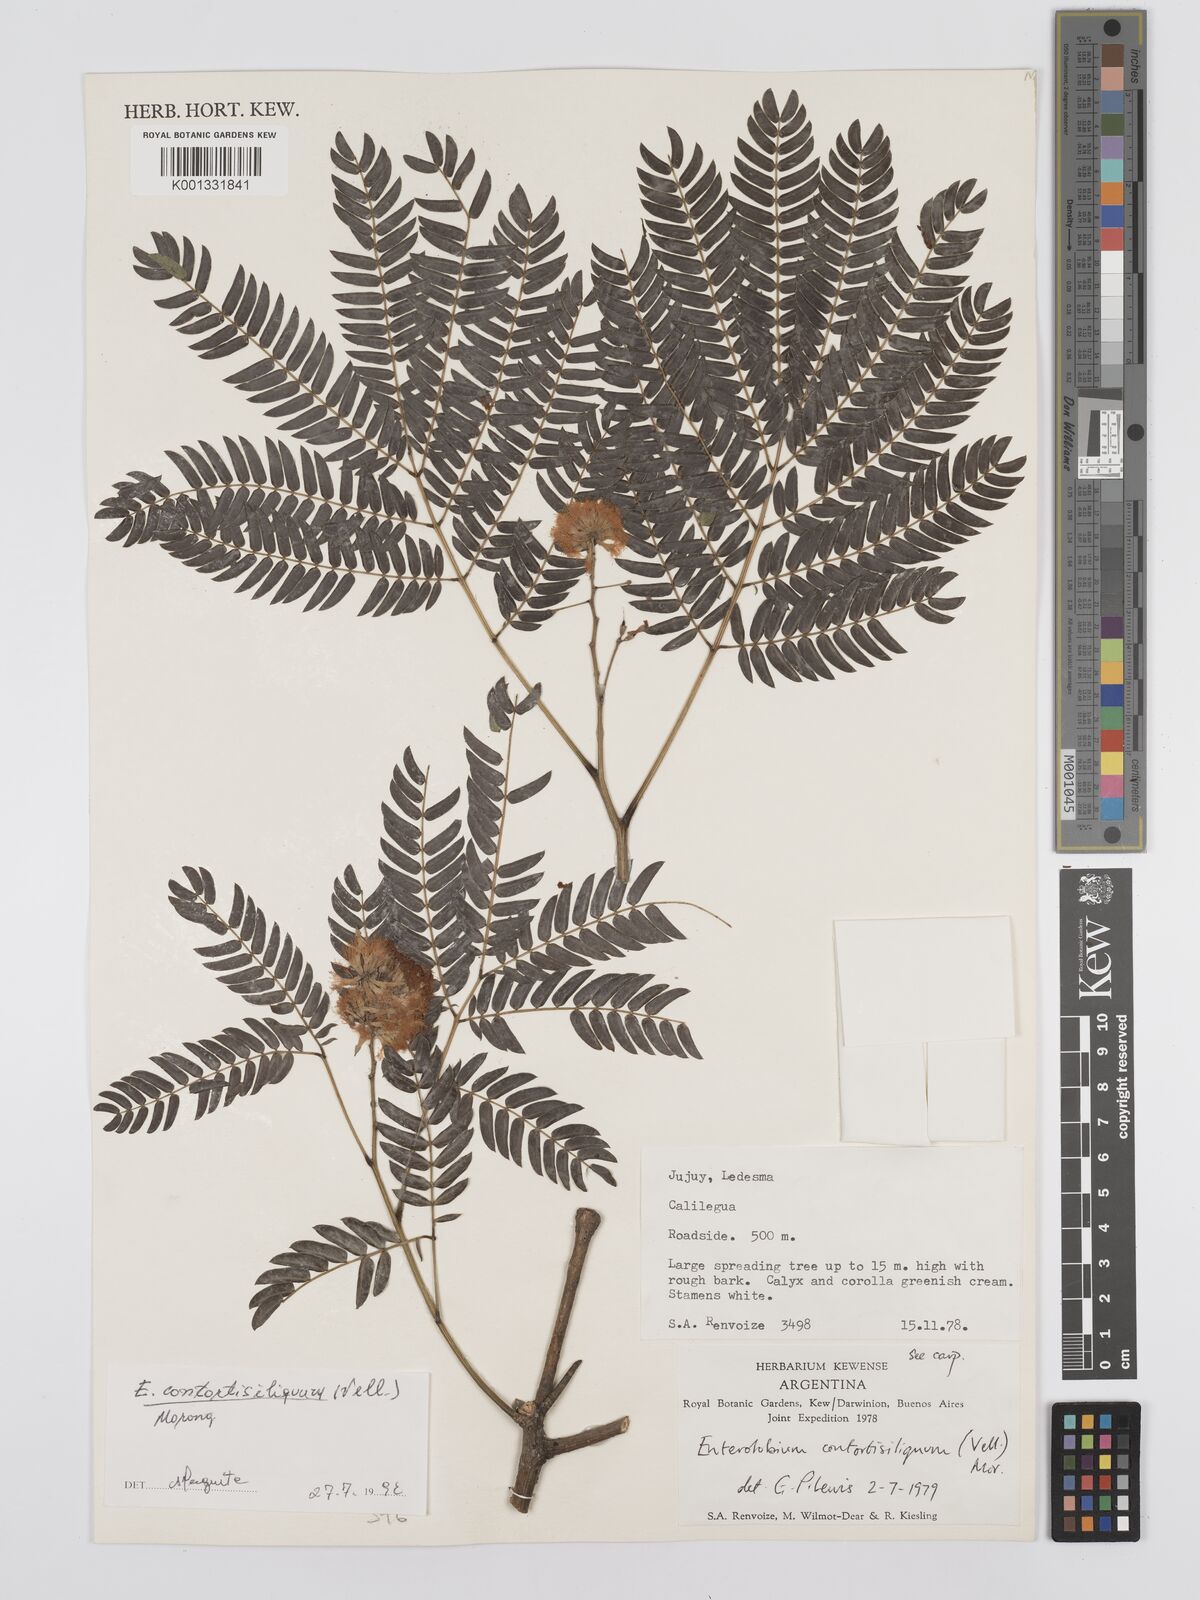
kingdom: Plantae
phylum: Tracheophyta
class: Magnoliopsida
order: Fabales
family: Fabaceae
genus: Enterolobium
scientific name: Enterolobium contortisiliquum
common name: Pacara earpod tree
